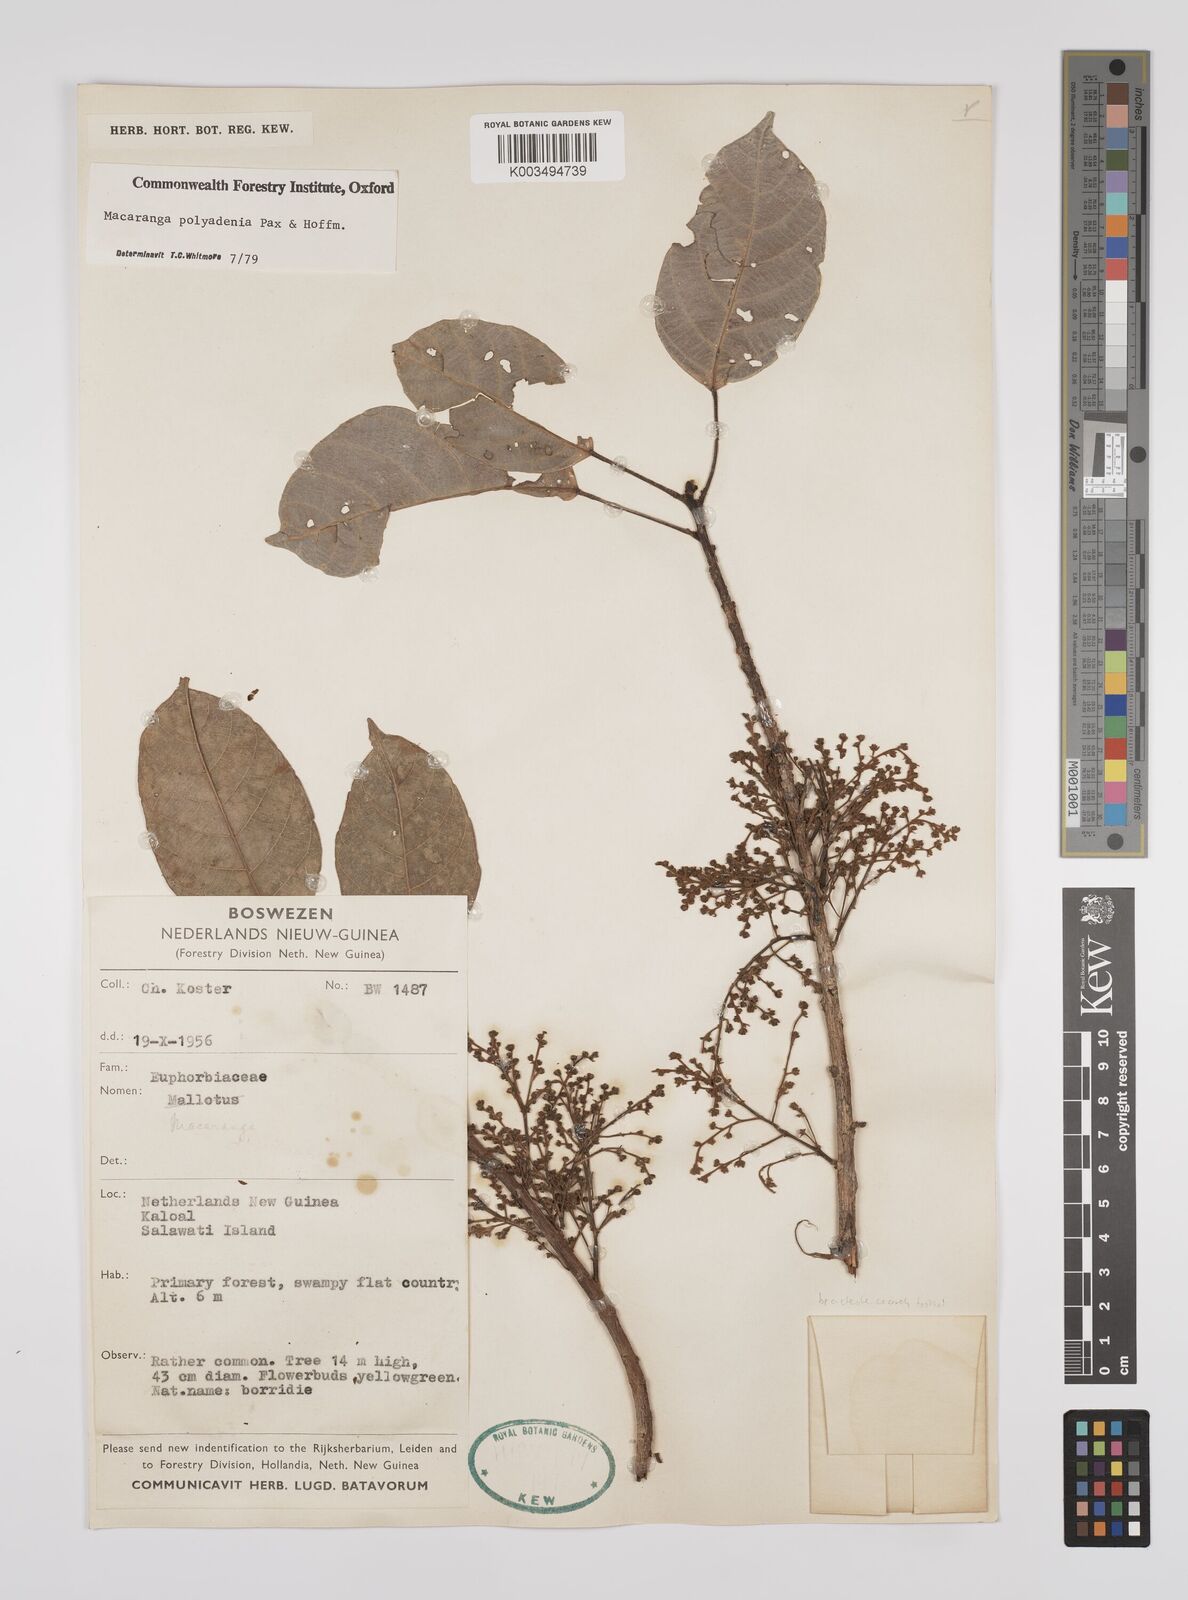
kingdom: Plantae
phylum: Tracheophyta
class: Magnoliopsida
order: Malpighiales
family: Euphorbiaceae
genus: Macaranga
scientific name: Macaranga polyadenia
